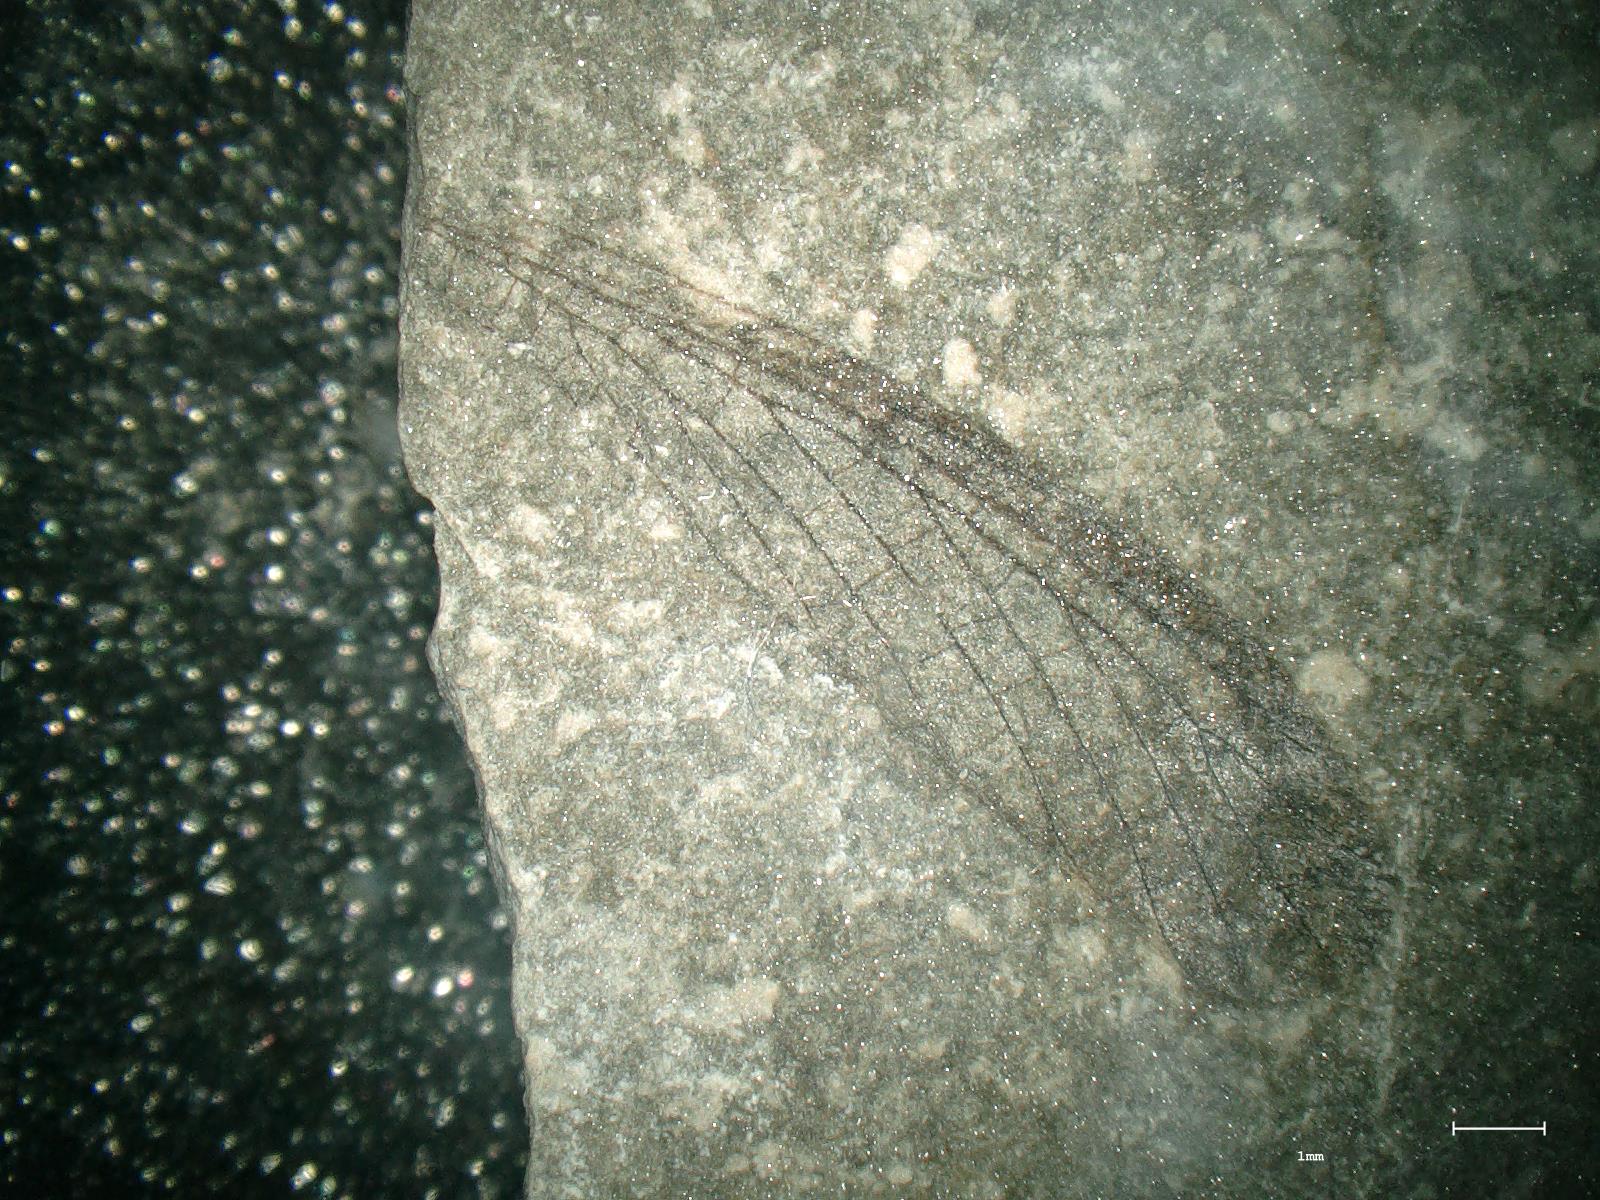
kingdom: Animalia
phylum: Arthropoda
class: Insecta
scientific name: Insecta
